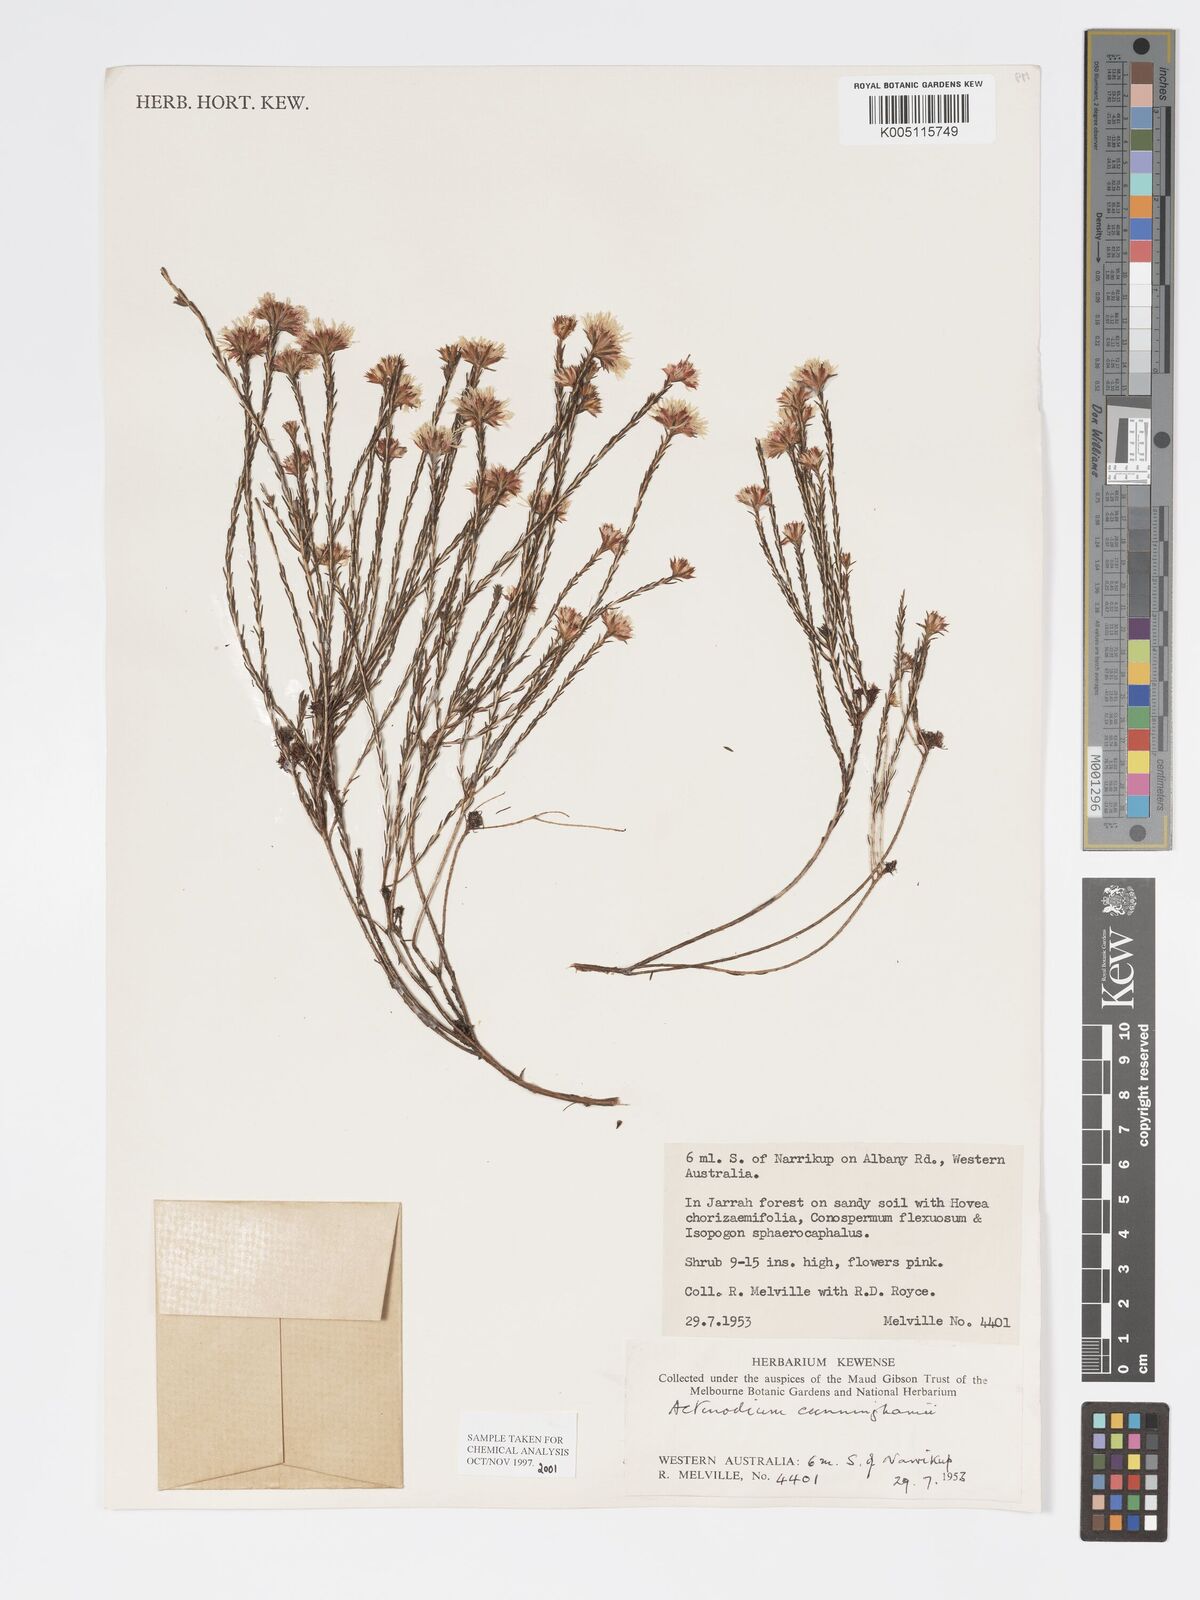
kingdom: Plantae
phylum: Tracheophyta
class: Magnoliopsida
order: Myrtales
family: Myrtaceae
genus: Actinodium
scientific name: Actinodium cunninghamii
